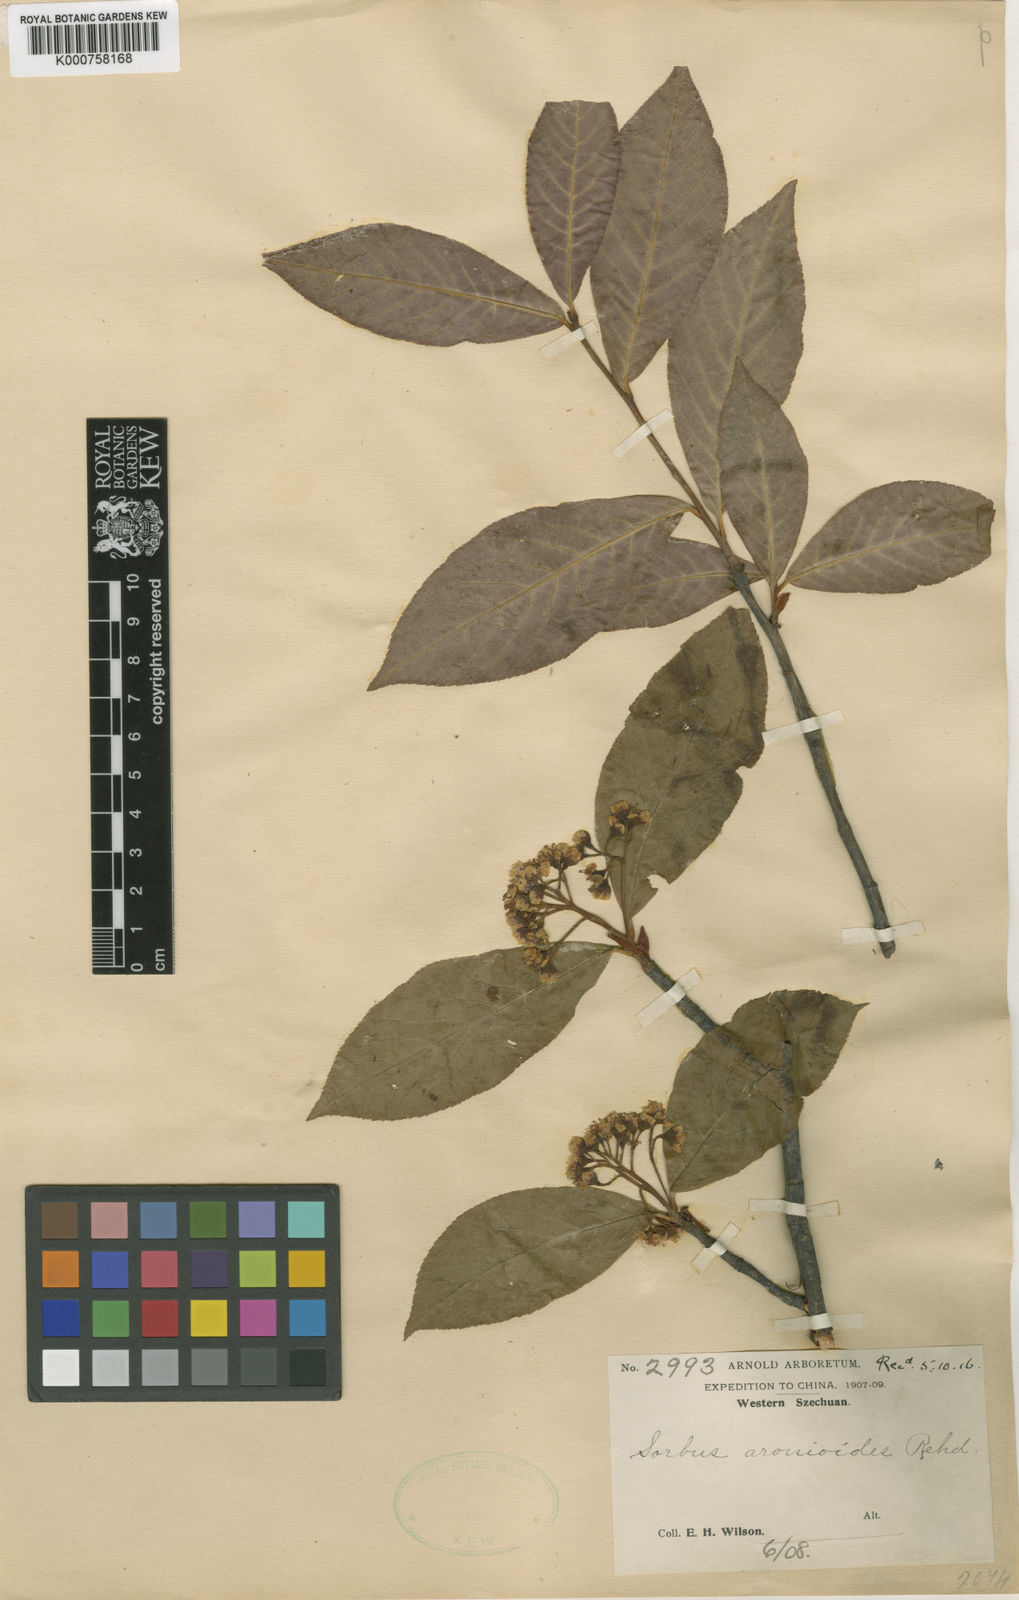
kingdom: Plantae
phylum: Tracheophyta
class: Magnoliopsida
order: Rosales
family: Rosaceae
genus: Sorbus
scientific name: Sorbus aronioides
